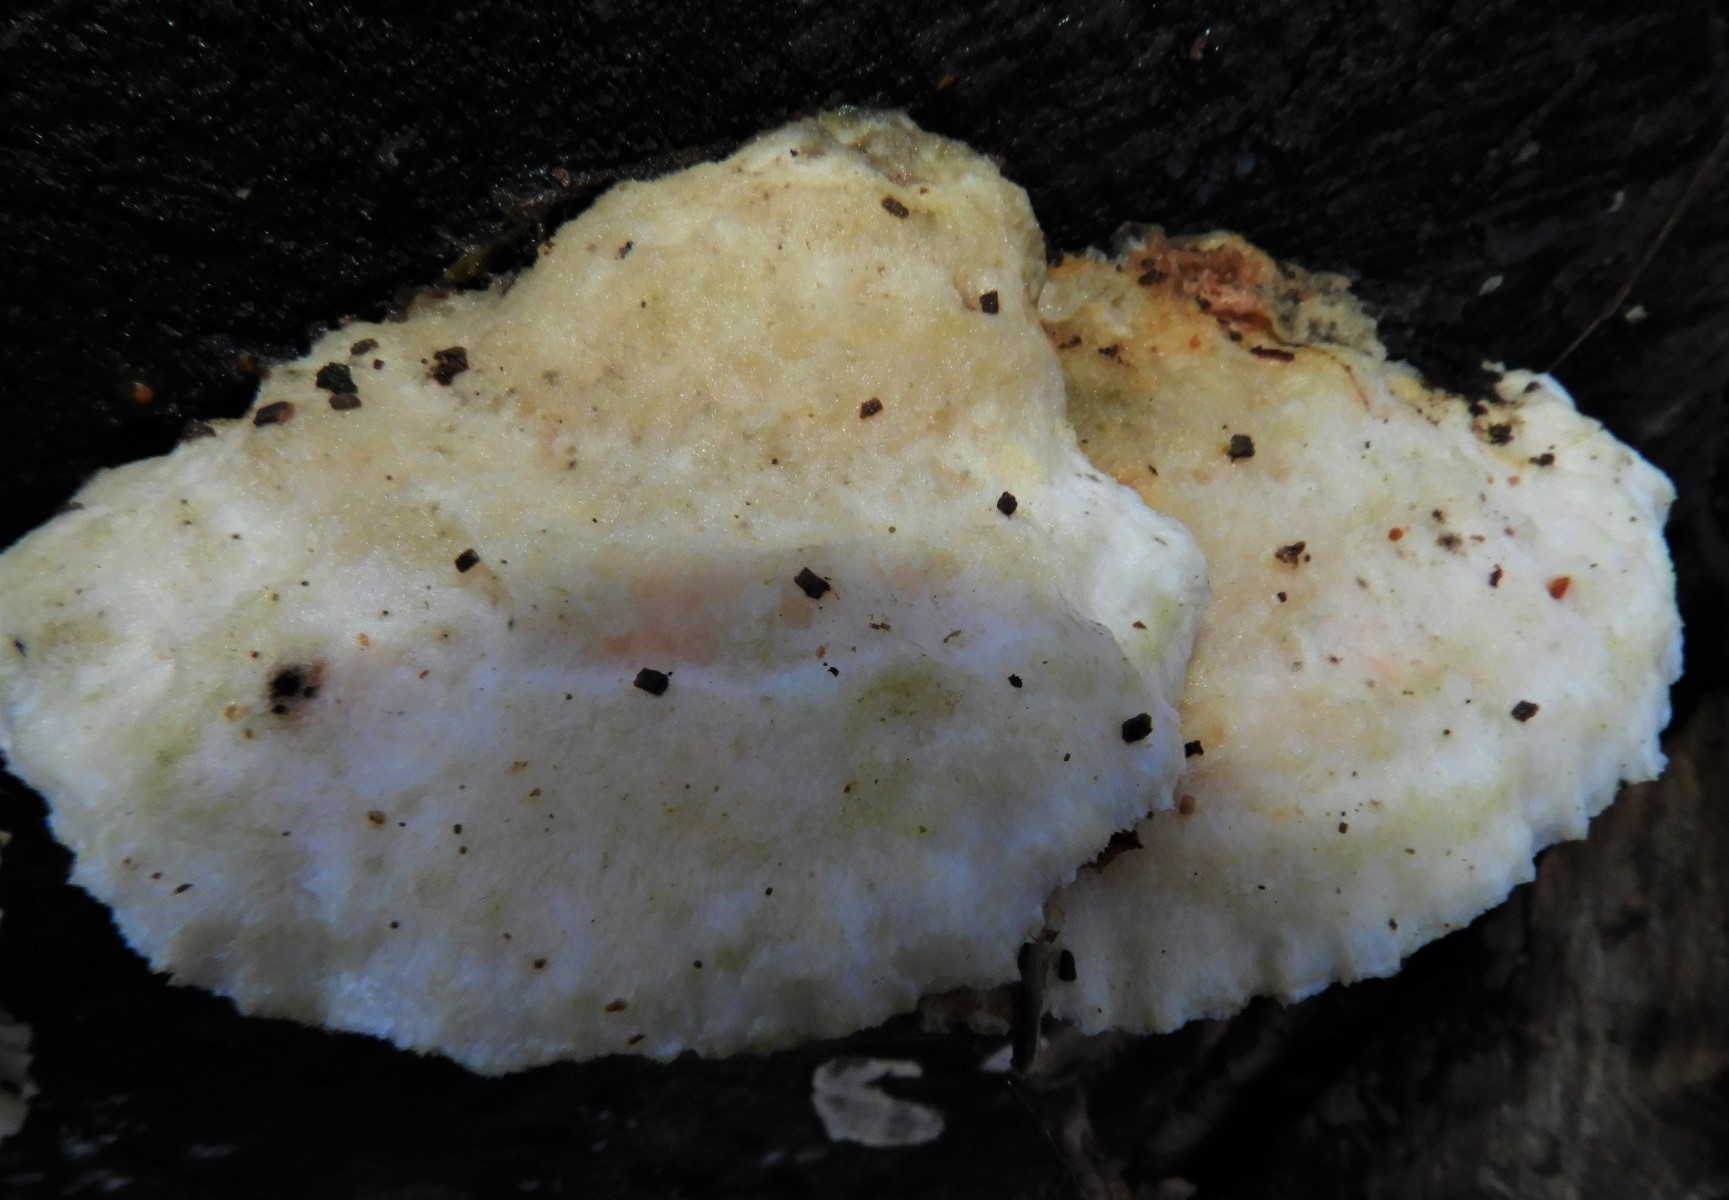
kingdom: Fungi
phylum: Basidiomycota
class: Agaricomycetes
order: Polyporales
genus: Amaropostia
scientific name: Amaropostia stiptica
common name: bitter kødporesvamp
